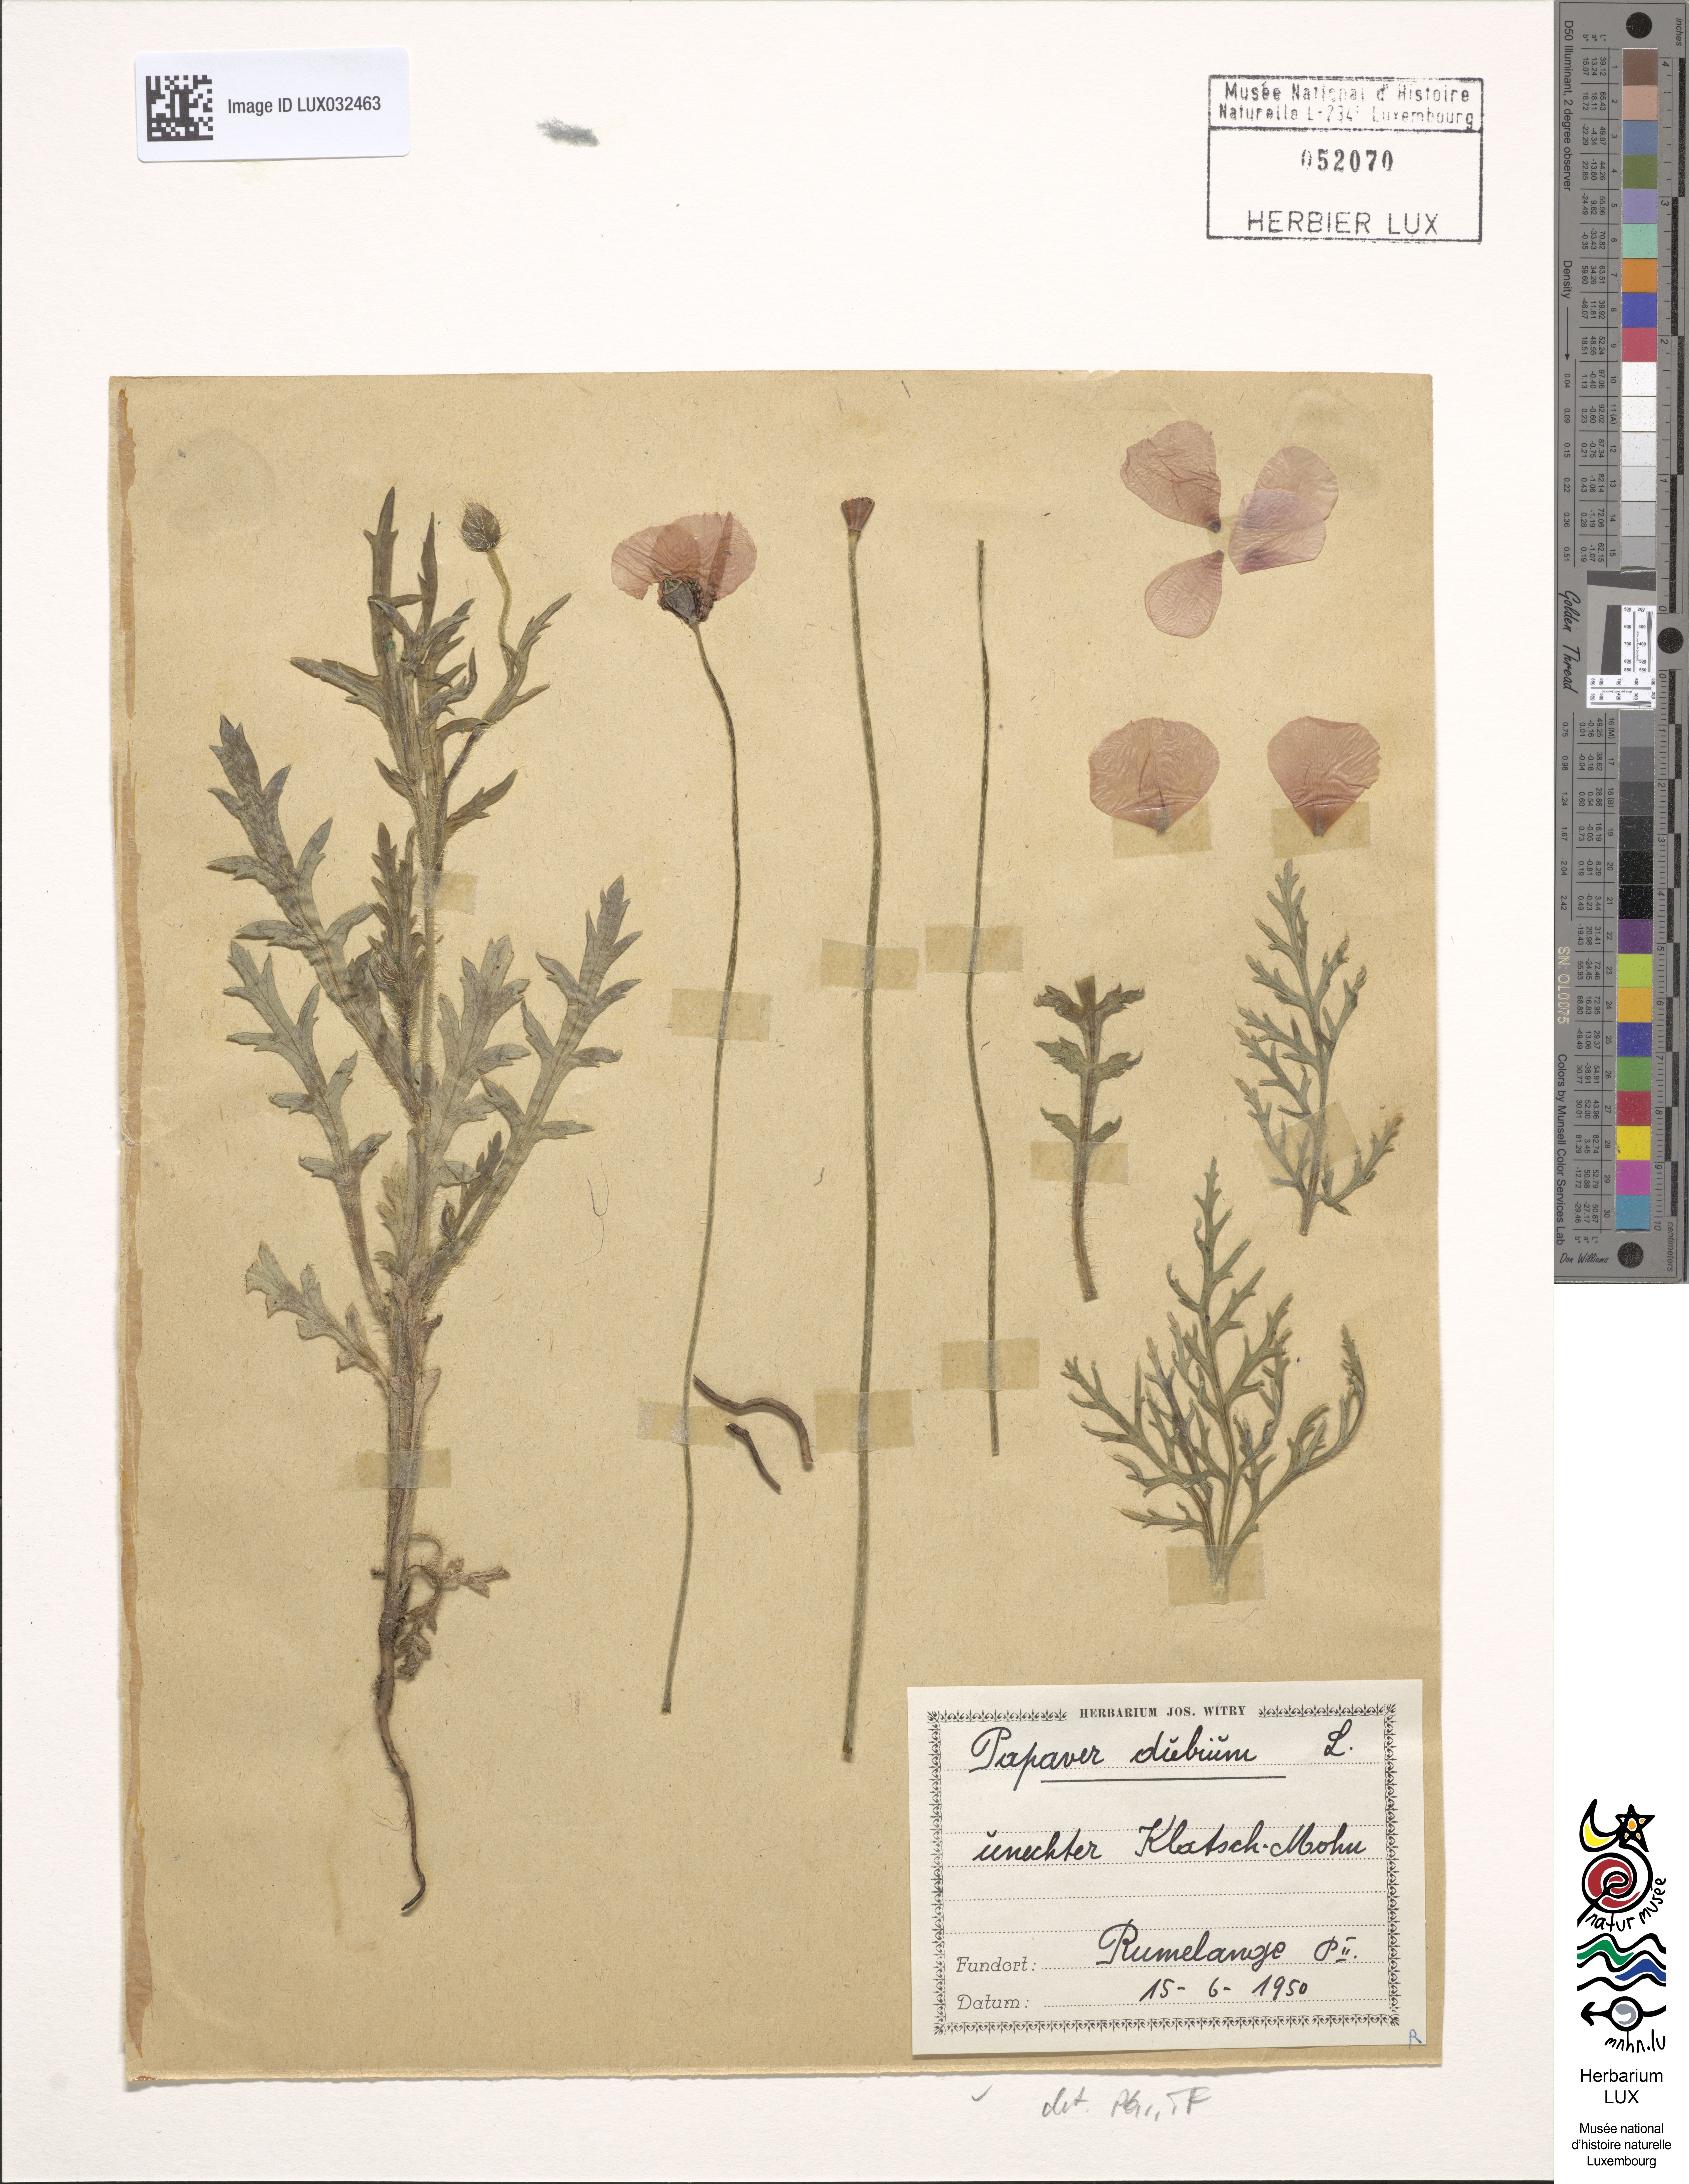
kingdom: Plantae
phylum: Tracheophyta
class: Magnoliopsida
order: Ranunculales
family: Papaveraceae
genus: Papaver
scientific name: Papaver dubium
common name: Long-headed poppy
